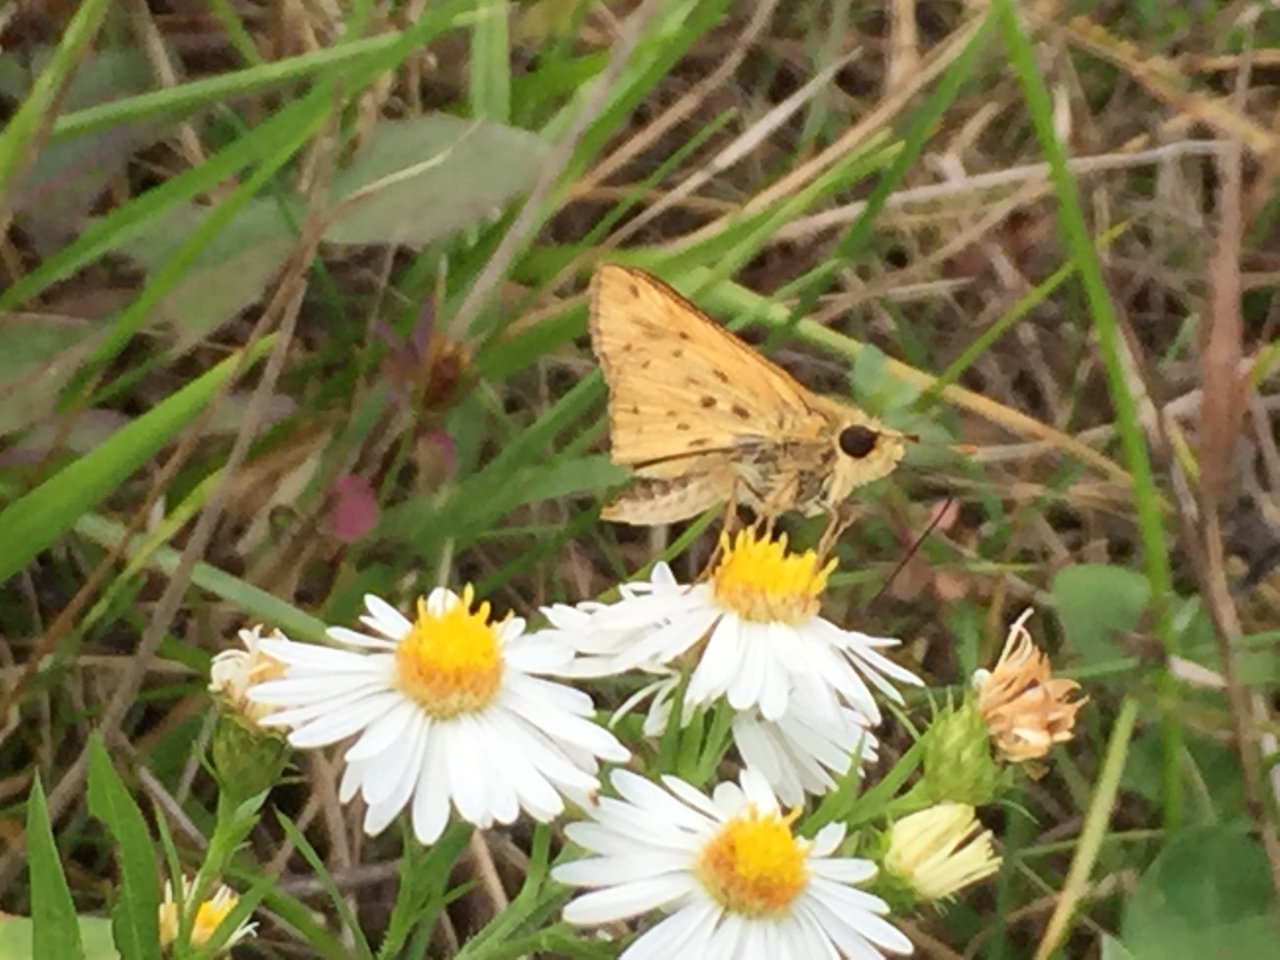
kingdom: Animalia
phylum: Arthropoda
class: Insecta
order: Lepidoptera
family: Hesperiidae
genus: Hylephila
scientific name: Hylephila phyleus
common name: Fiery Skipper
